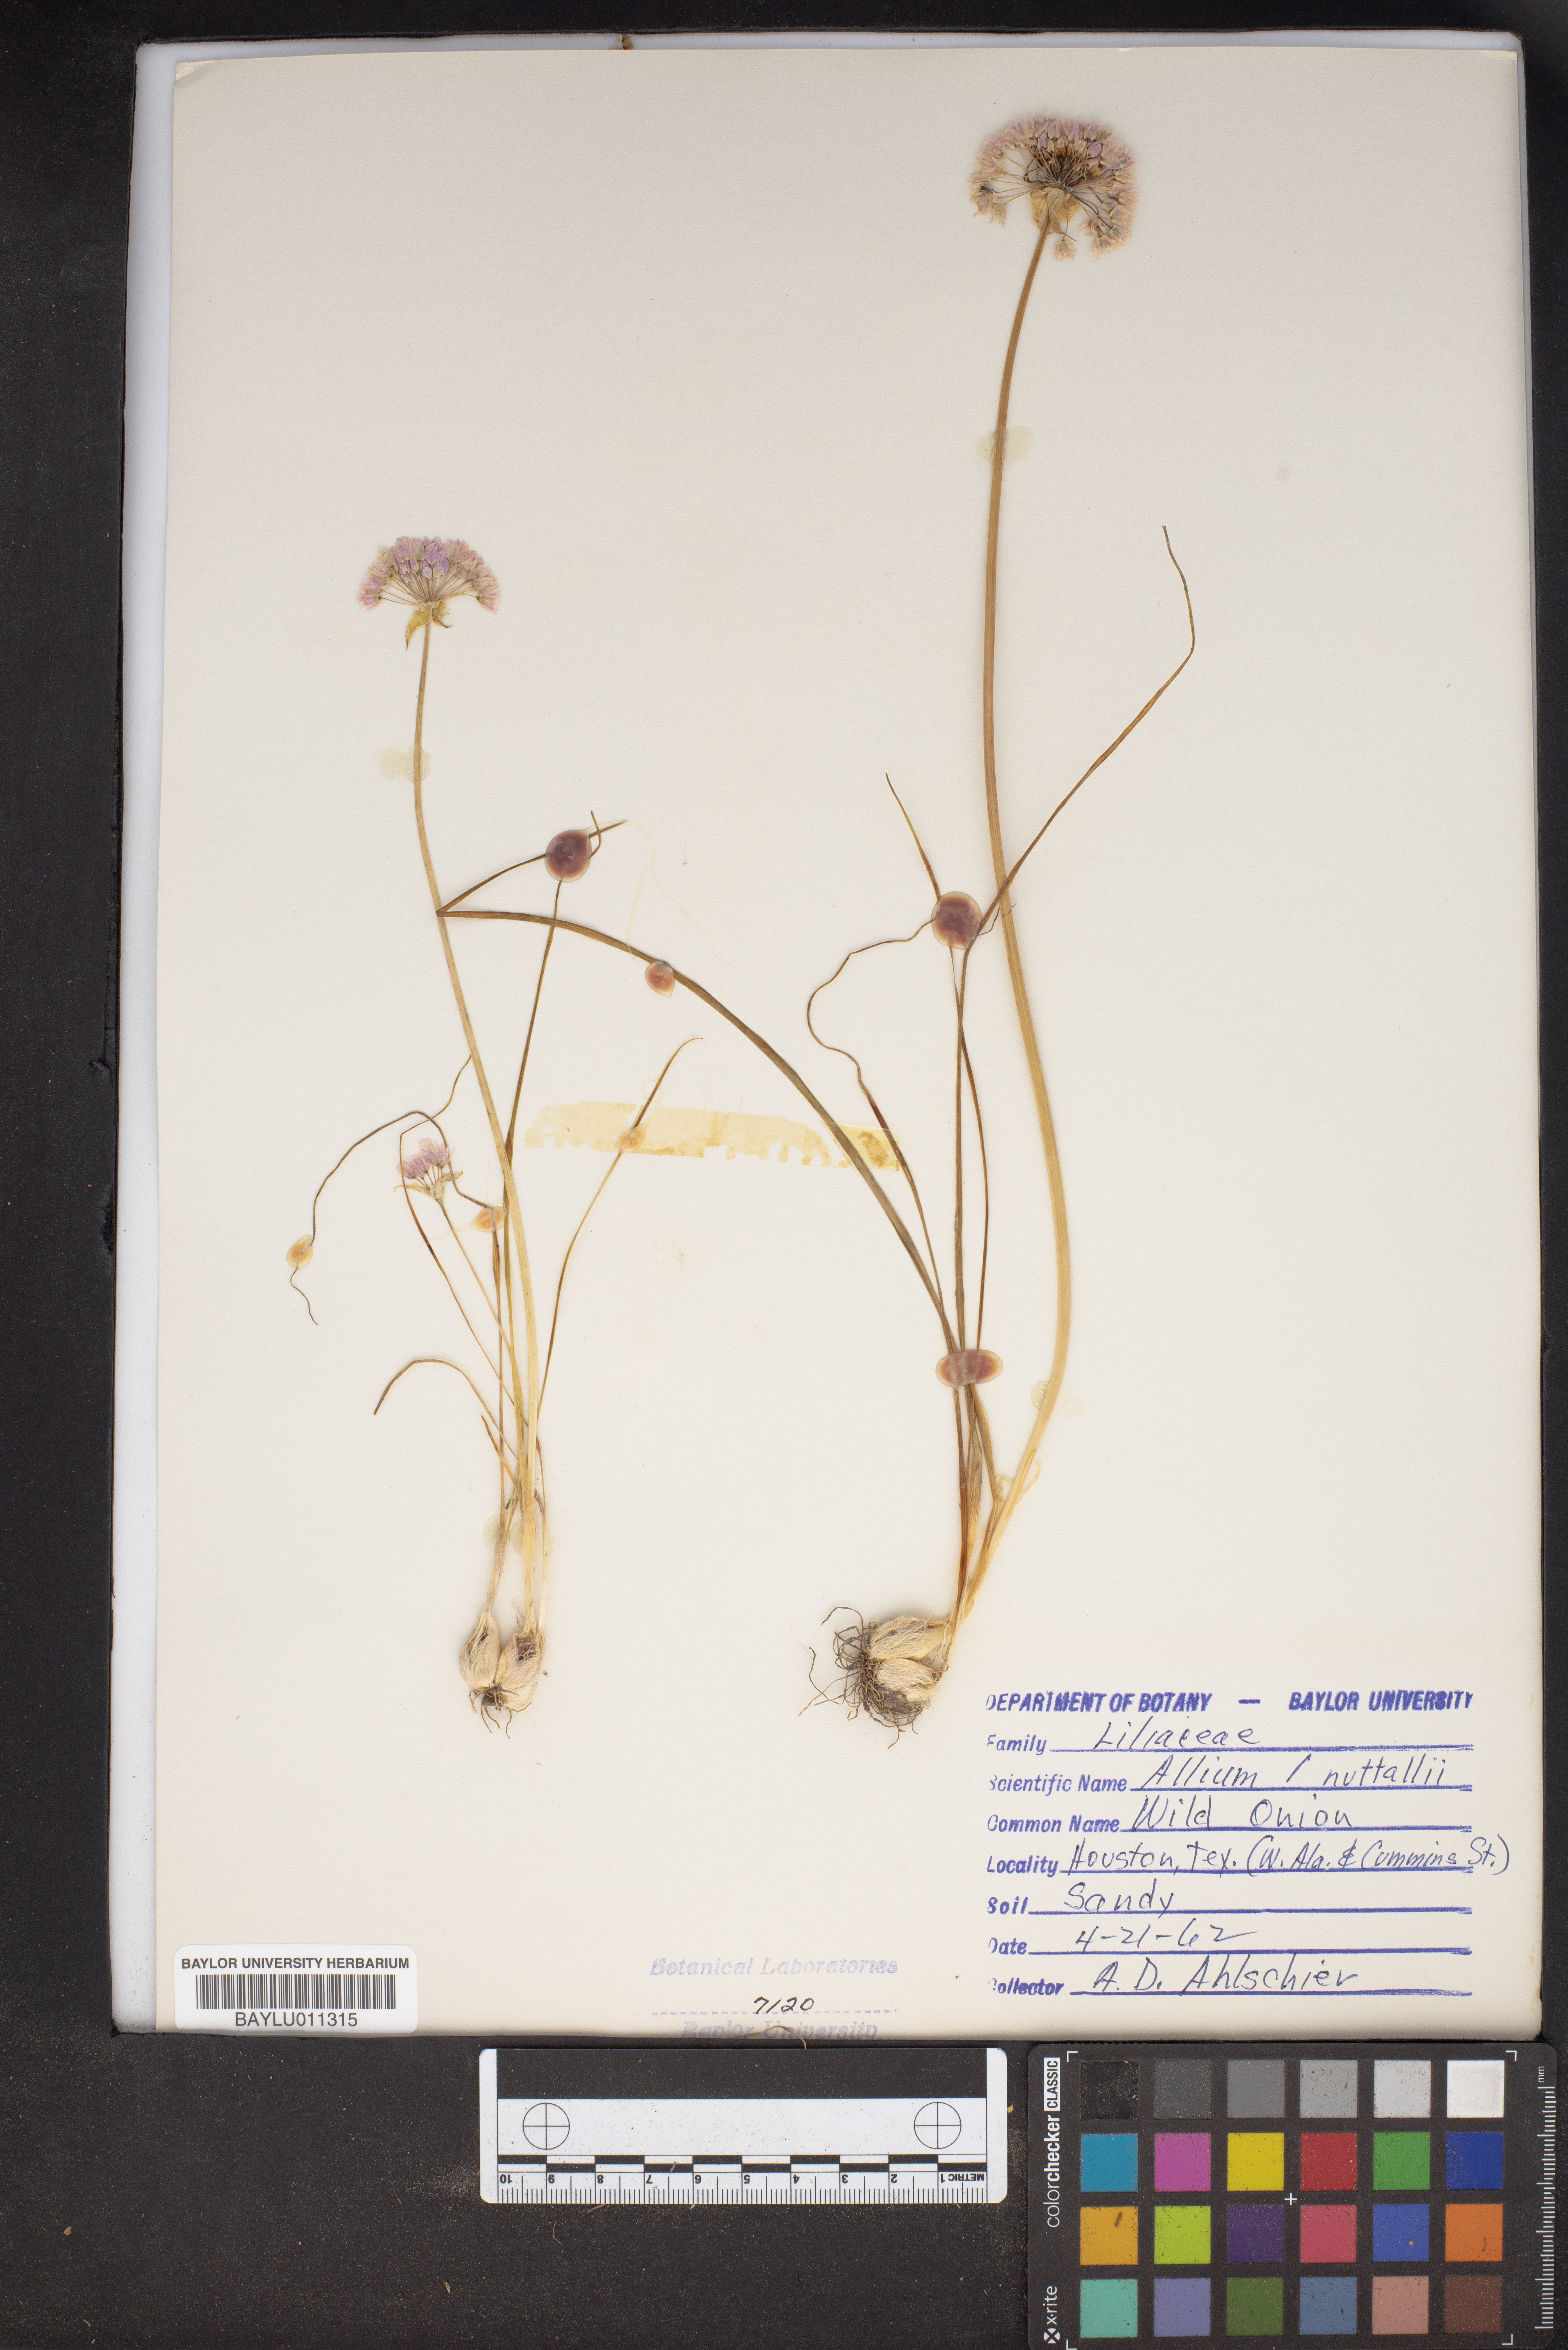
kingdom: Plantae
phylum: Tracheophyta
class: Liliopsida
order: Asparagales
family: Amaryllidaceae
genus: Allium
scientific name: Allium drummondii
